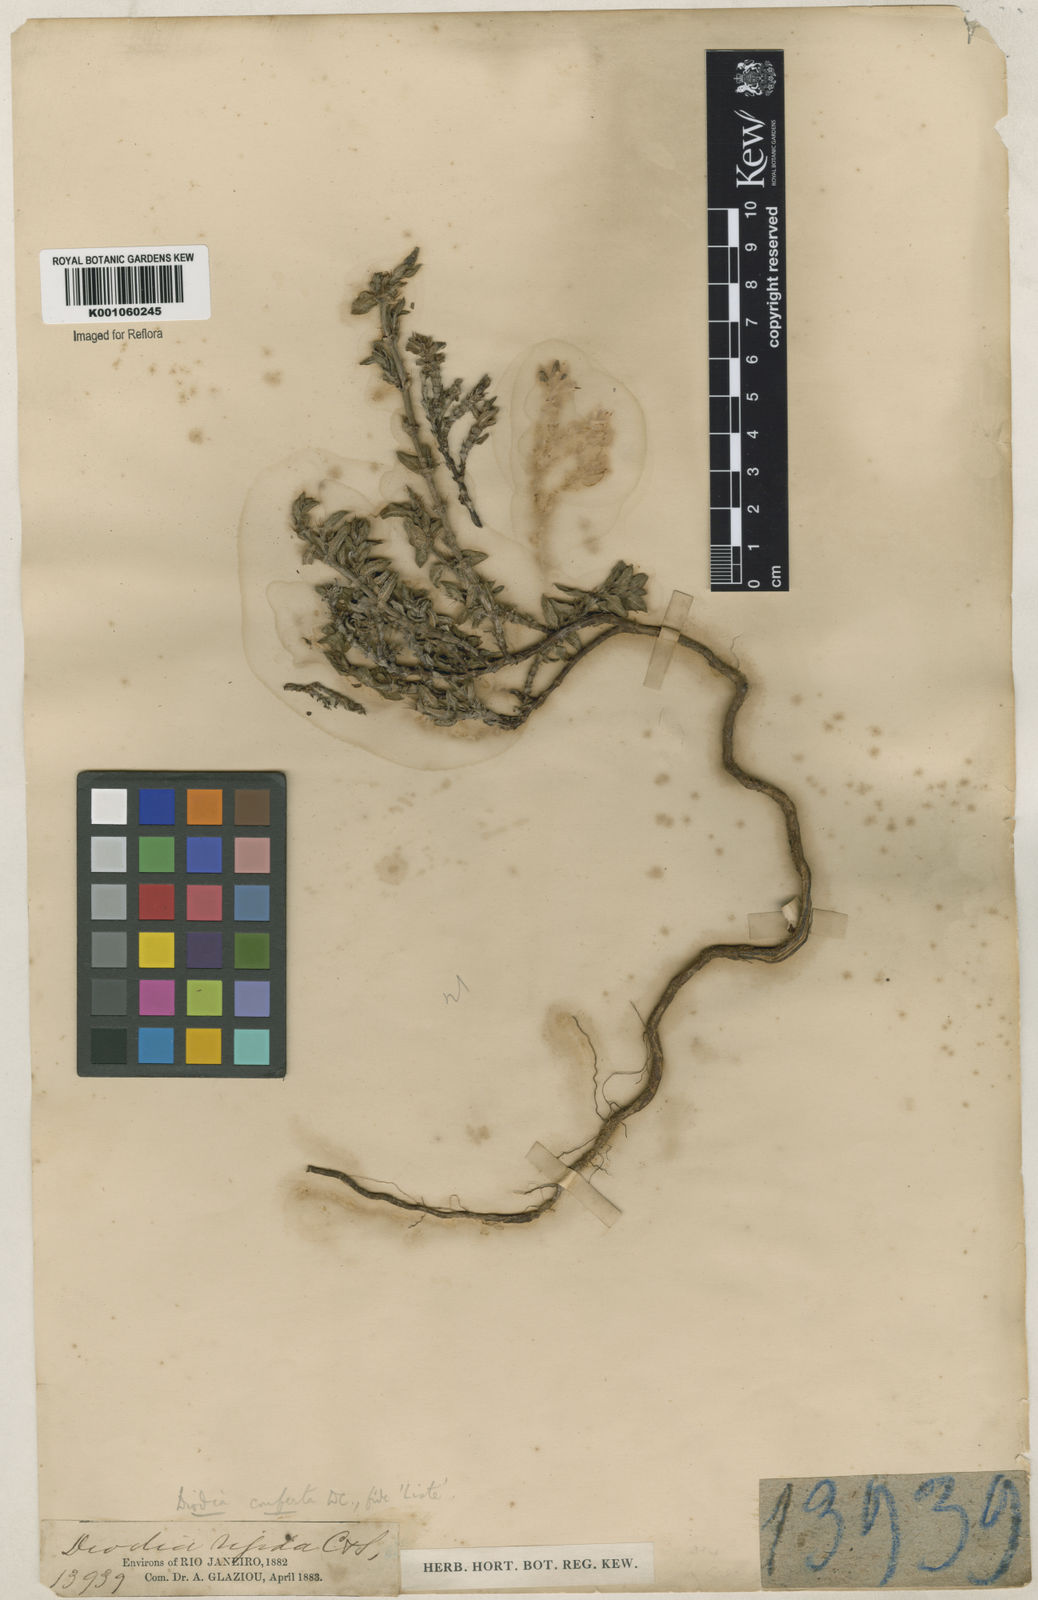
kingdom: Plantae
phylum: Tracheophyta
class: Magnoliopsida
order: Gentianales
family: Rubiaceae
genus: Hexasepalum
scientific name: Hexasepalum apiculatum
